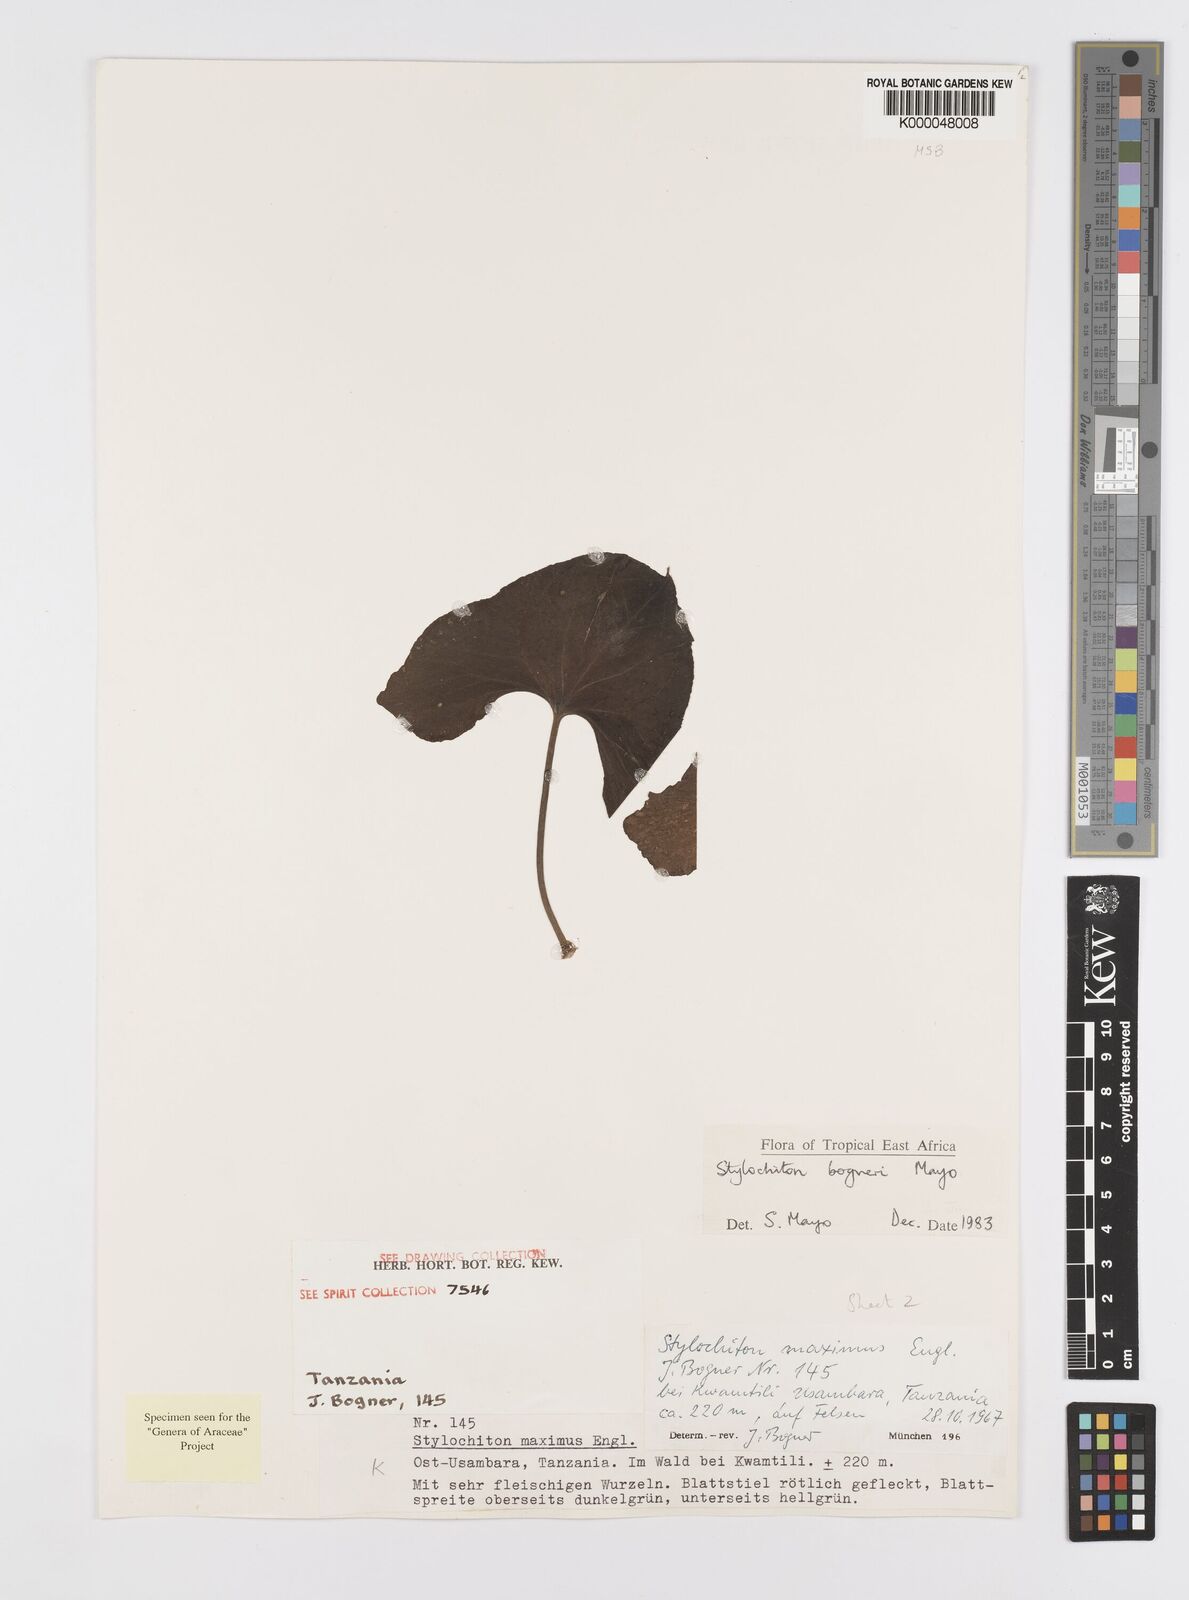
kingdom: Plantae
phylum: Tracheophyta
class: Liliopsida
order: Alismatales
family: Araceae
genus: Stylochaeton
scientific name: Stylochaeton bogneri
